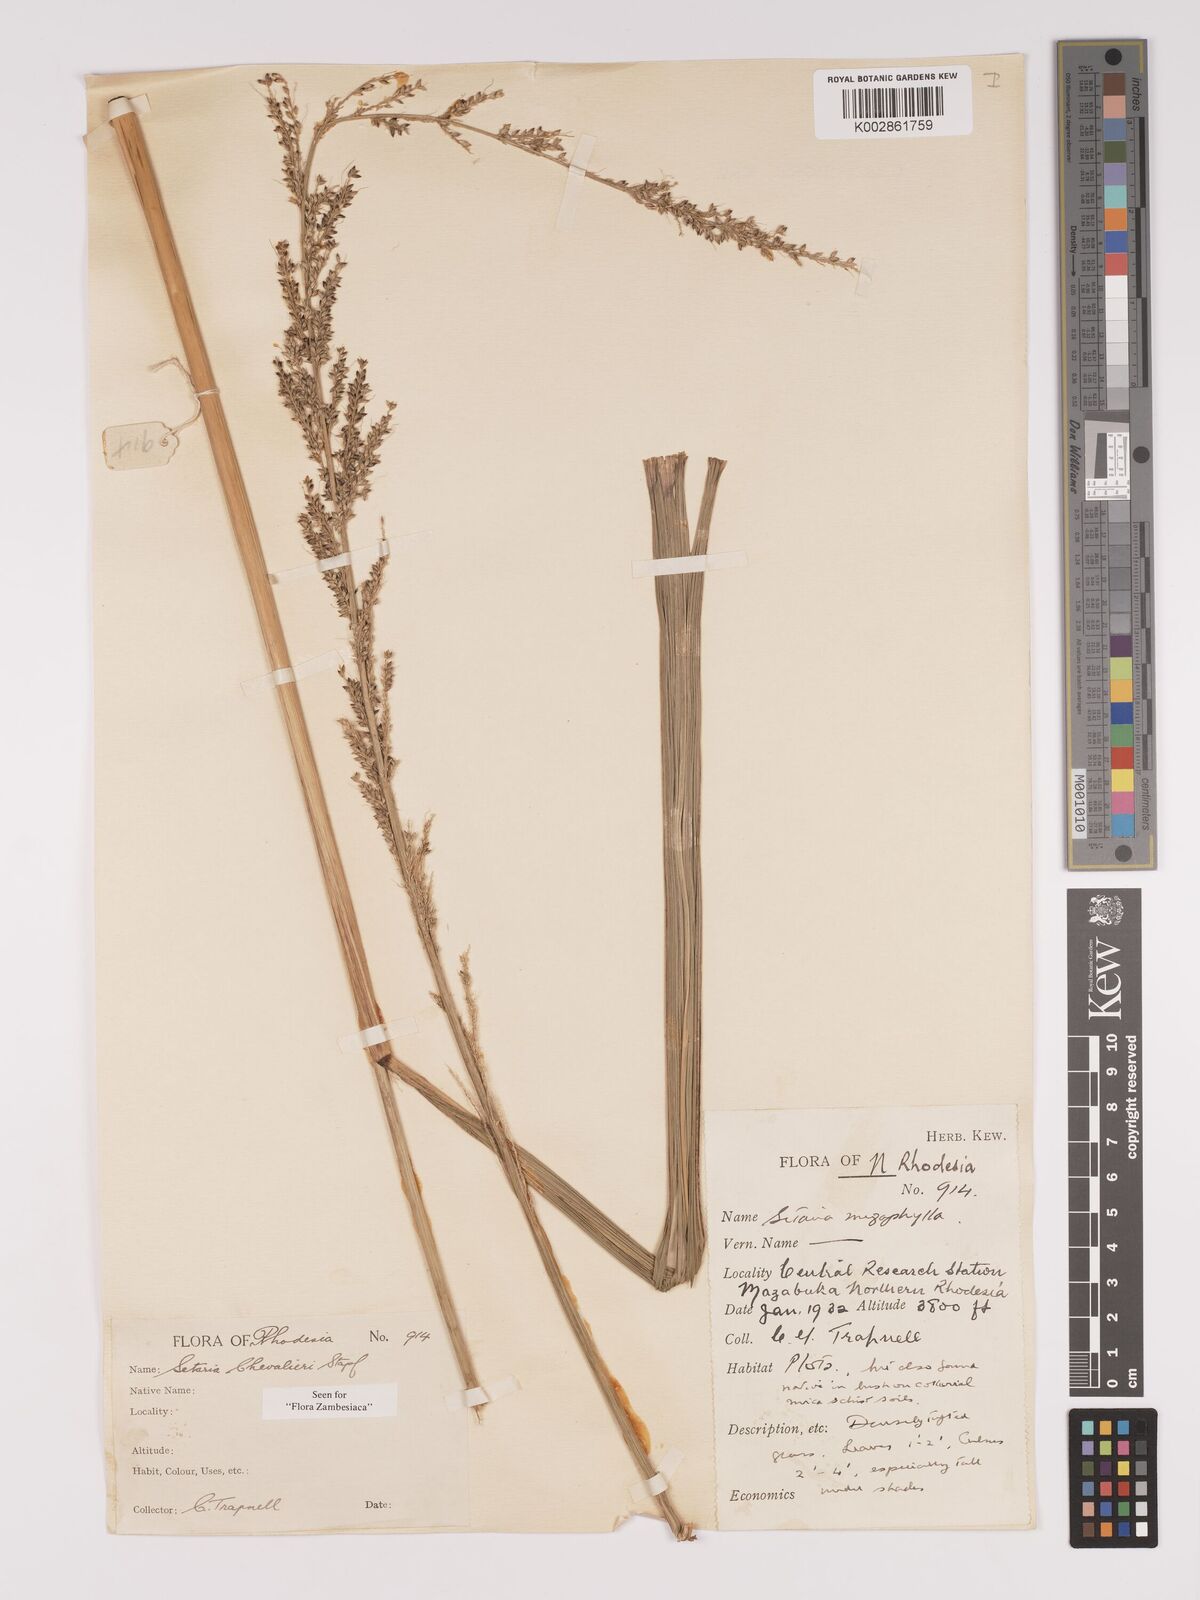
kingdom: Plantae
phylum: Tracheophyta
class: Liliopsida
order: Poales
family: Poaceae
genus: Setaria
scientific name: Setaria megaphylla
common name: Bigleaf bristlegrass
